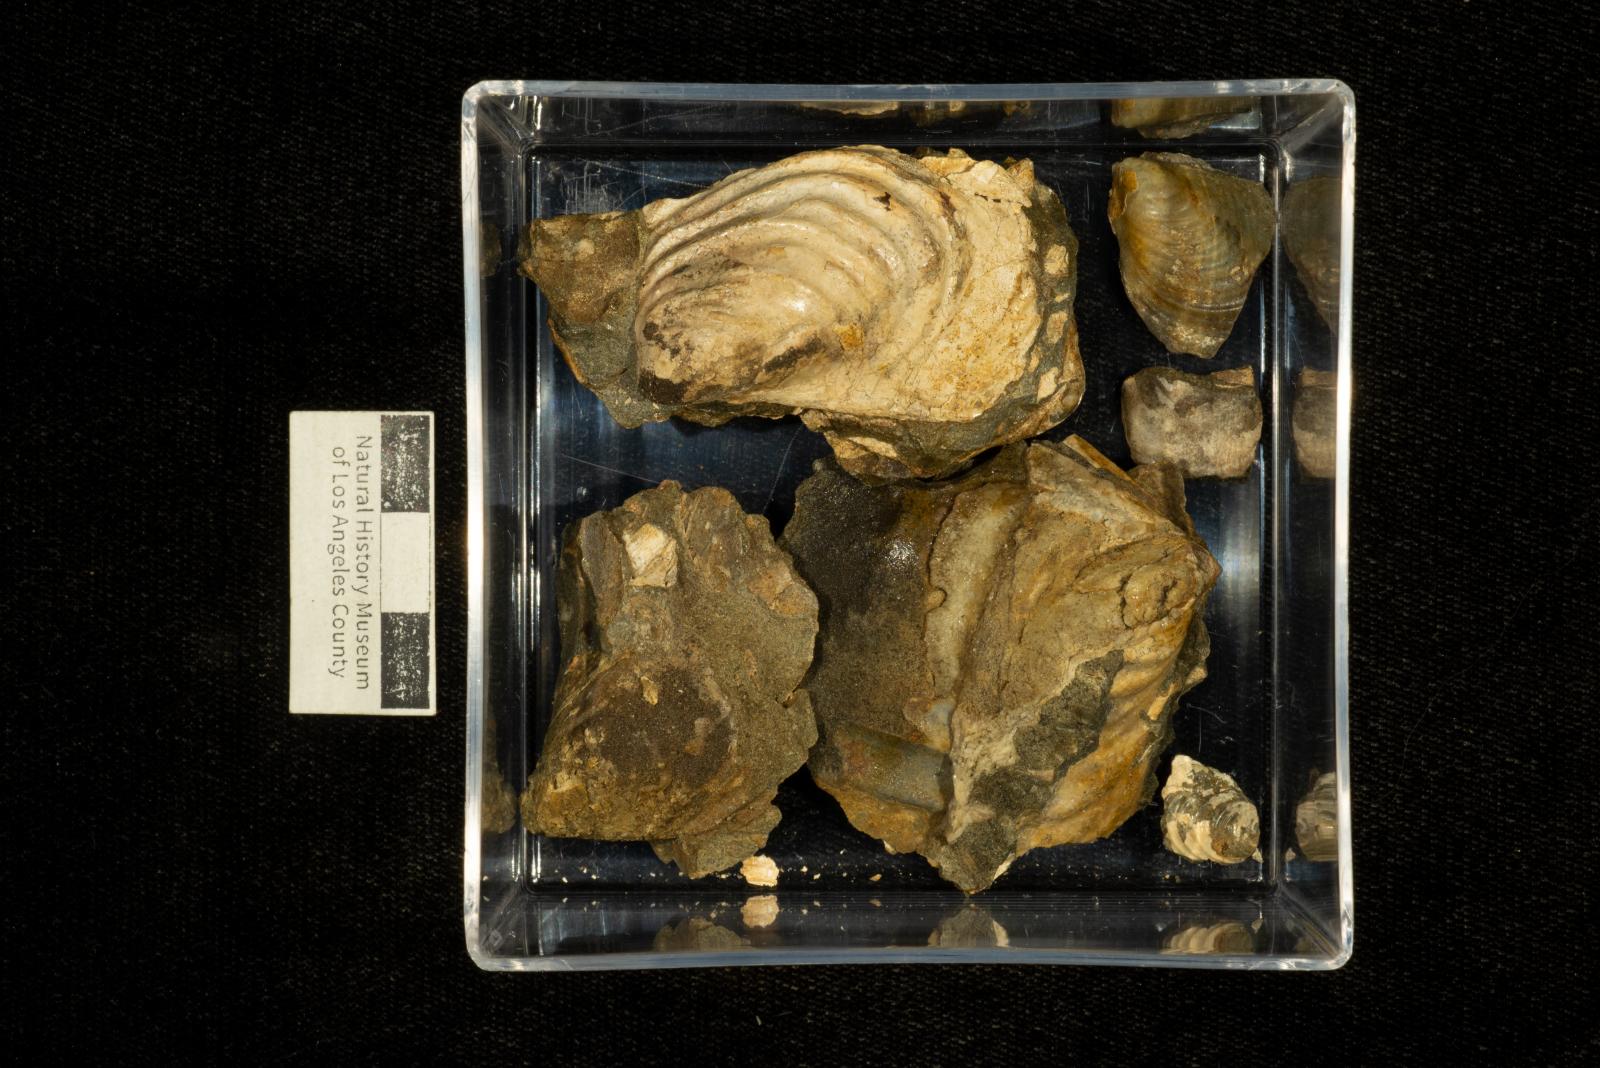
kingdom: Animalia
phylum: Mollusca
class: Bivalvia
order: Myalinida
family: Inoceramidae
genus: Inoceramus
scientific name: Inoceramus
